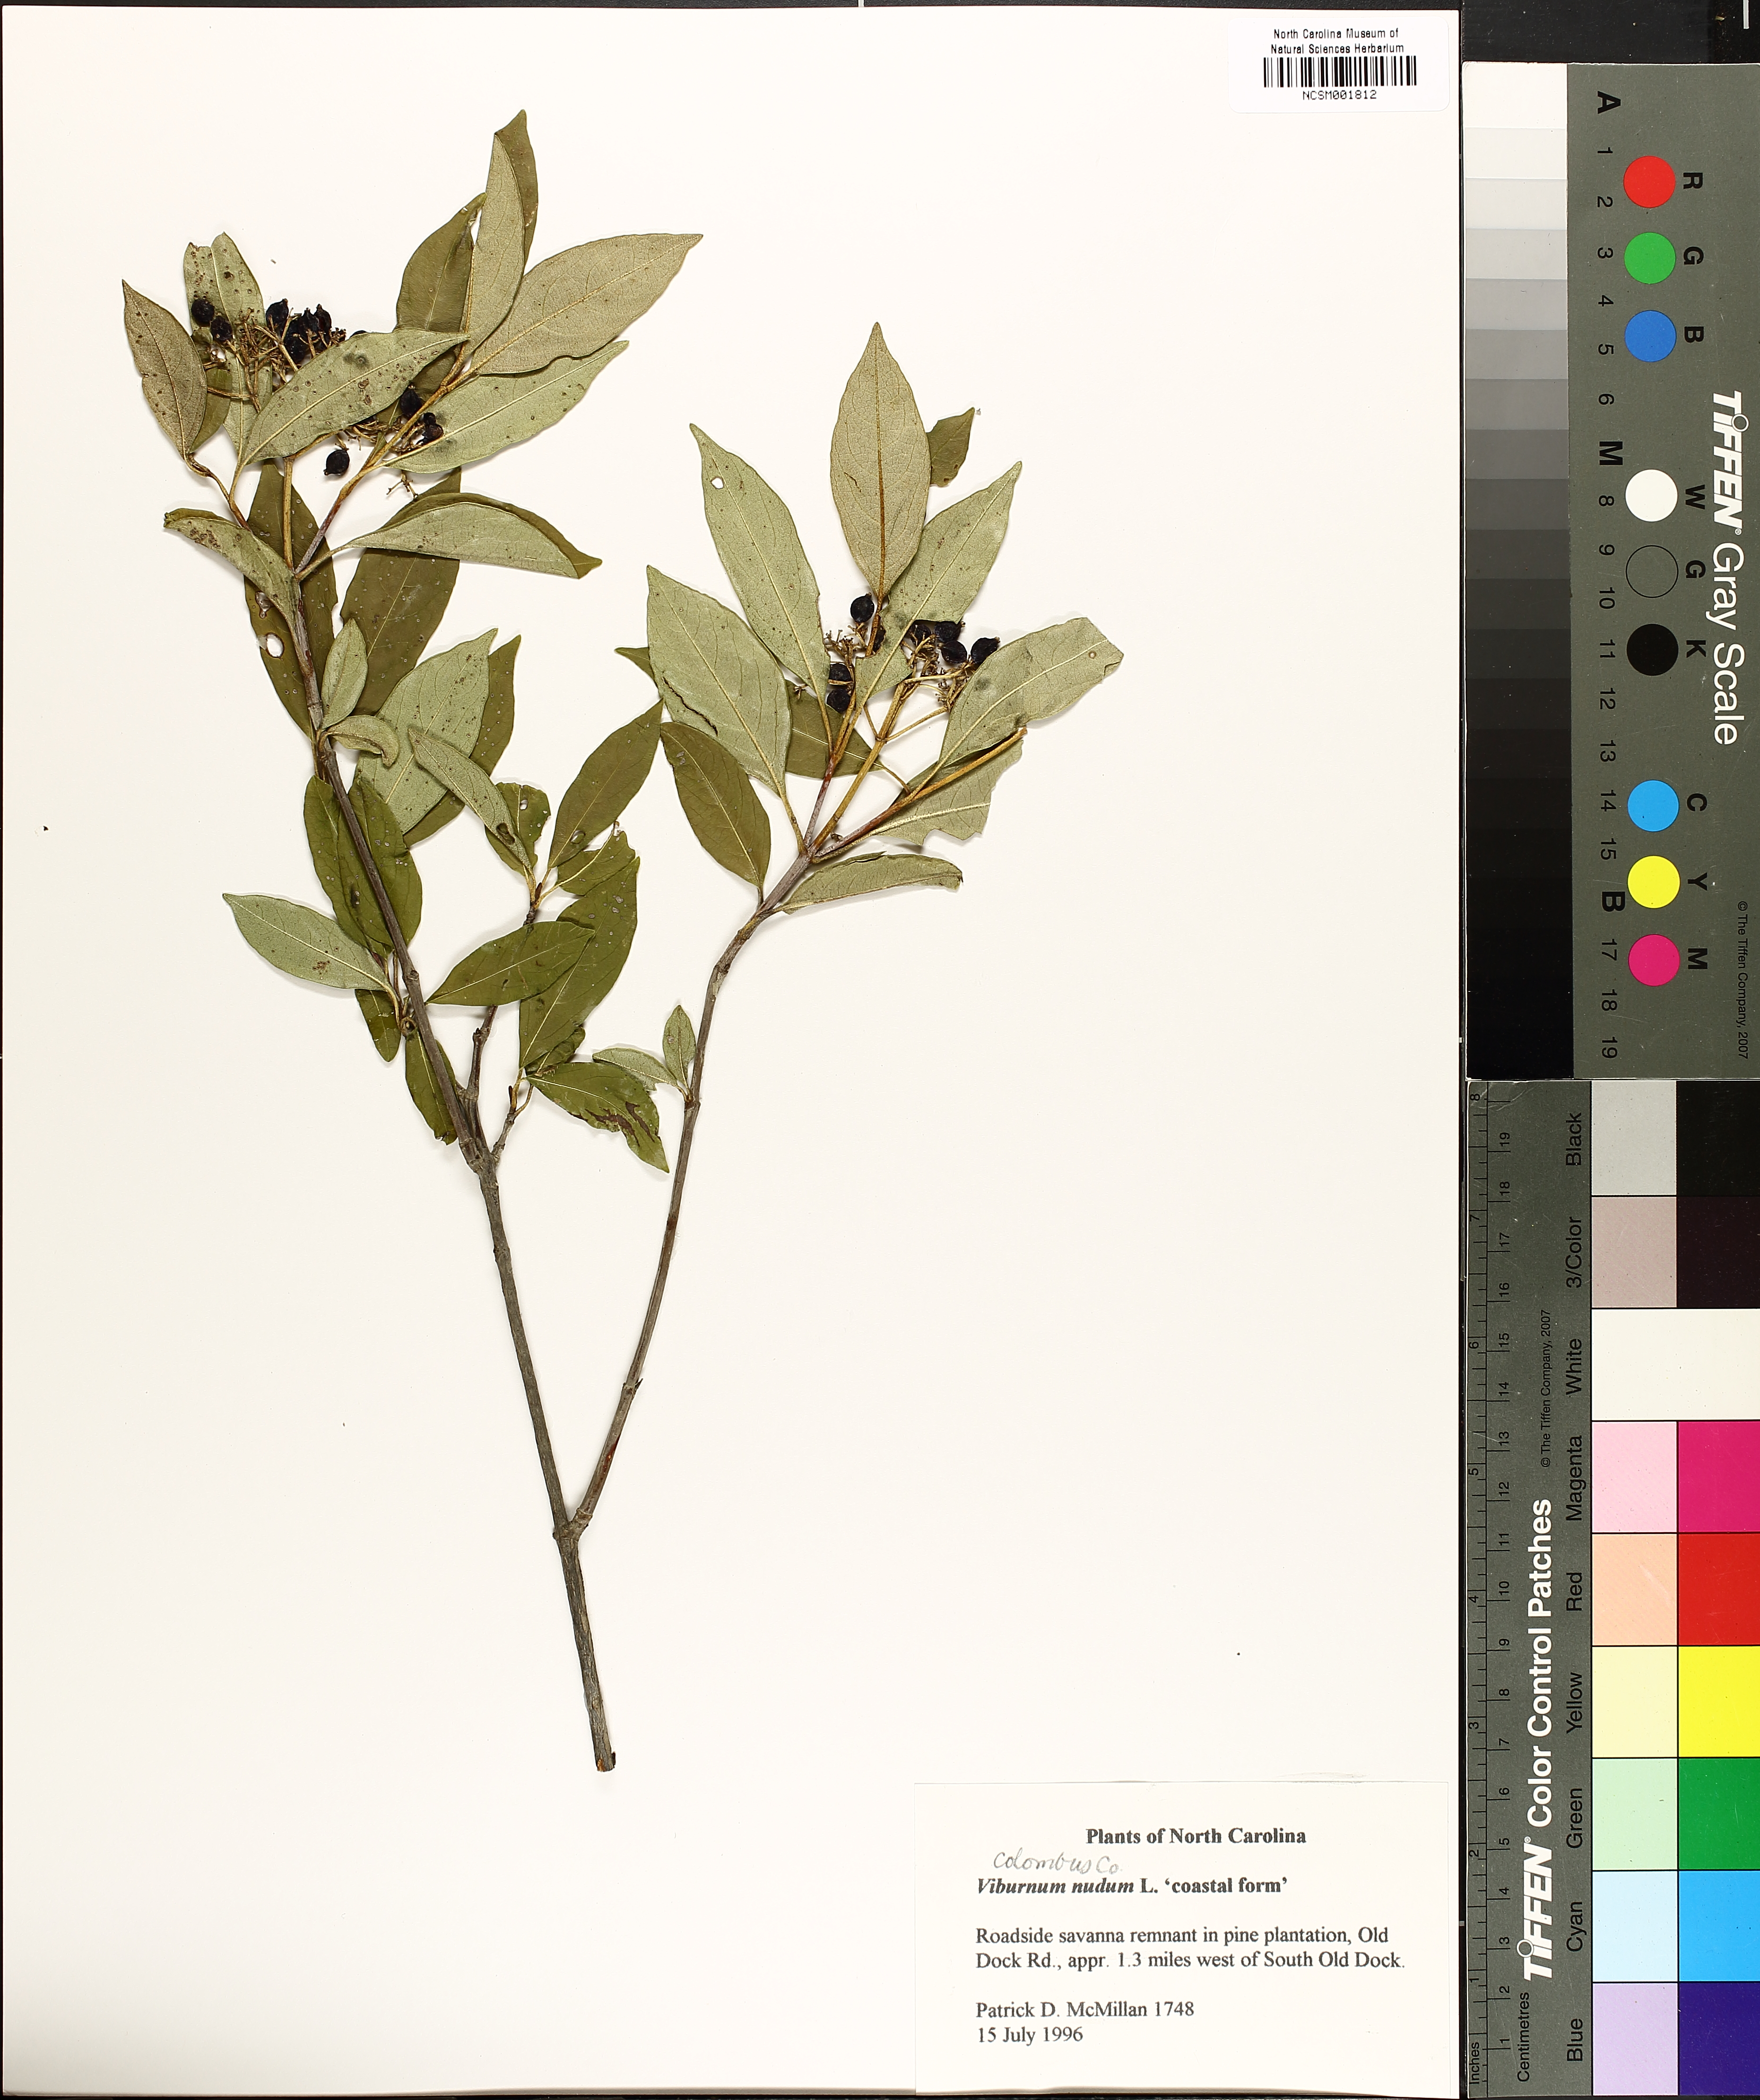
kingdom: Plantae
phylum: Tracheophyta
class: Magnoliopsida
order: Dipsacales
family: Viburnaceae
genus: Viburnum
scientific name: Viburnum nudum
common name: Possum haw
